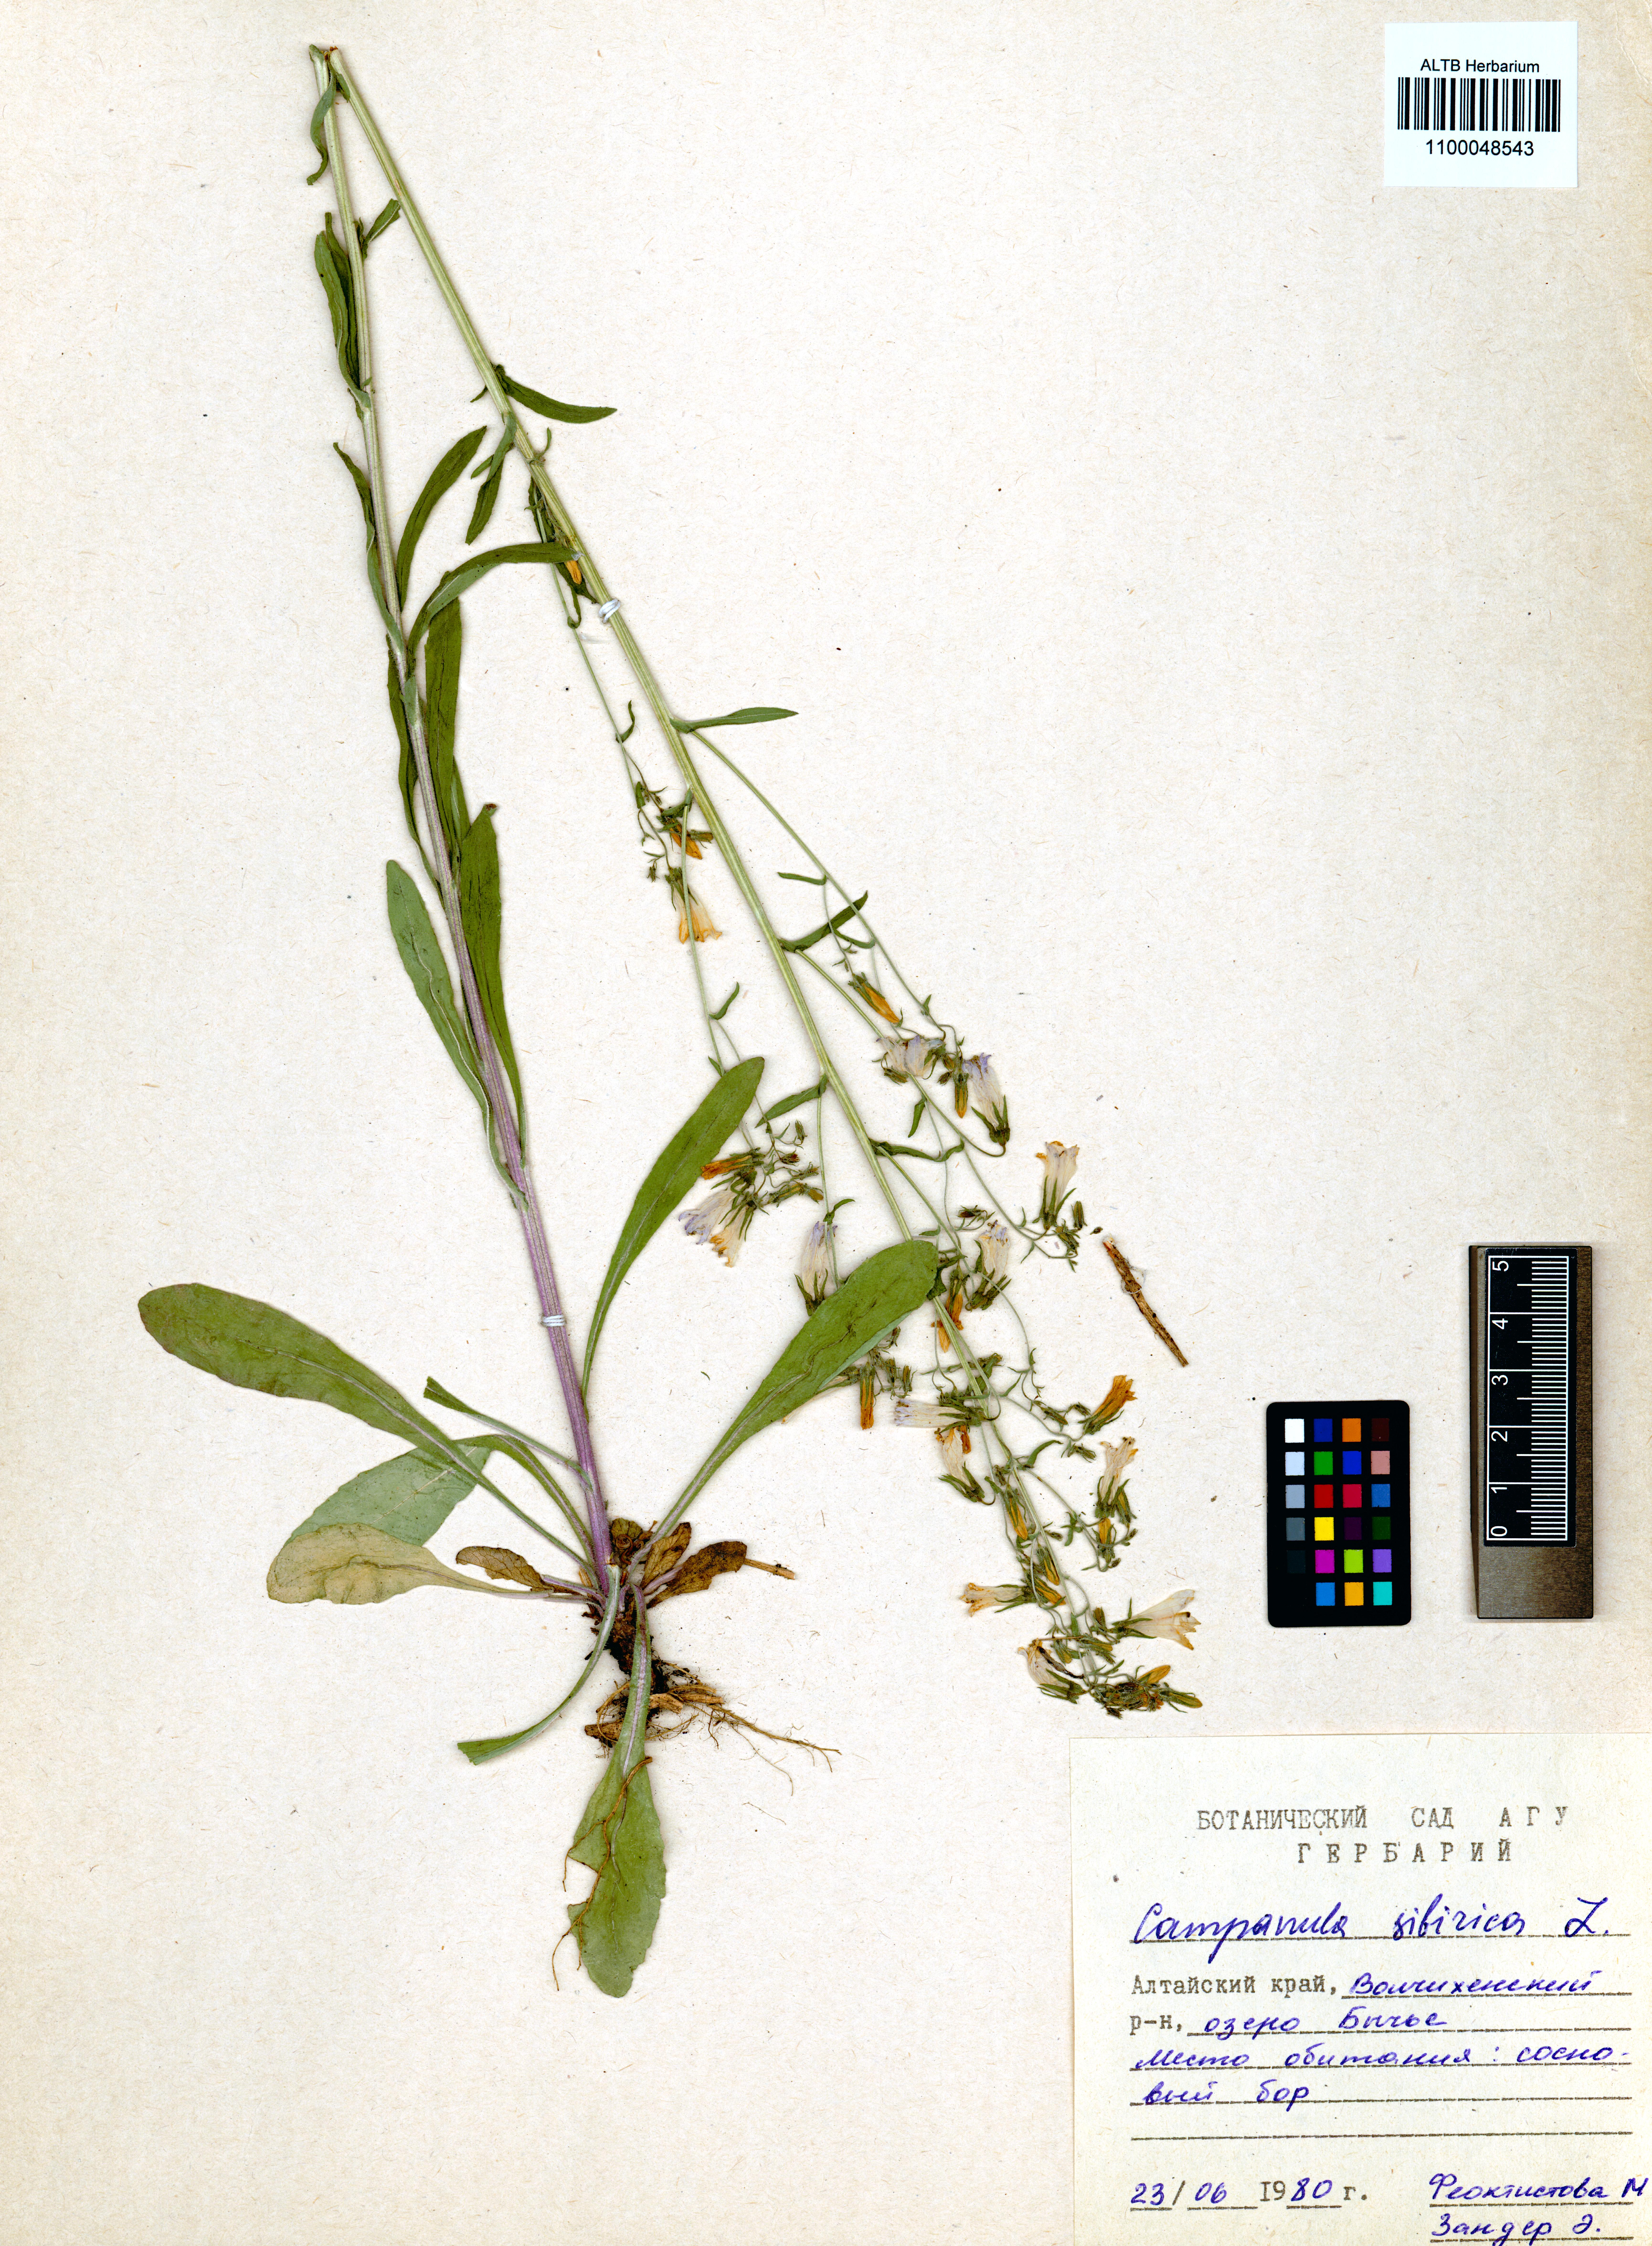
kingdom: Plantae
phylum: Tracheophyta
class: Magnoliopsida
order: Asterales
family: Campanulaceae
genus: Campanula
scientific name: Campanula sibirica
